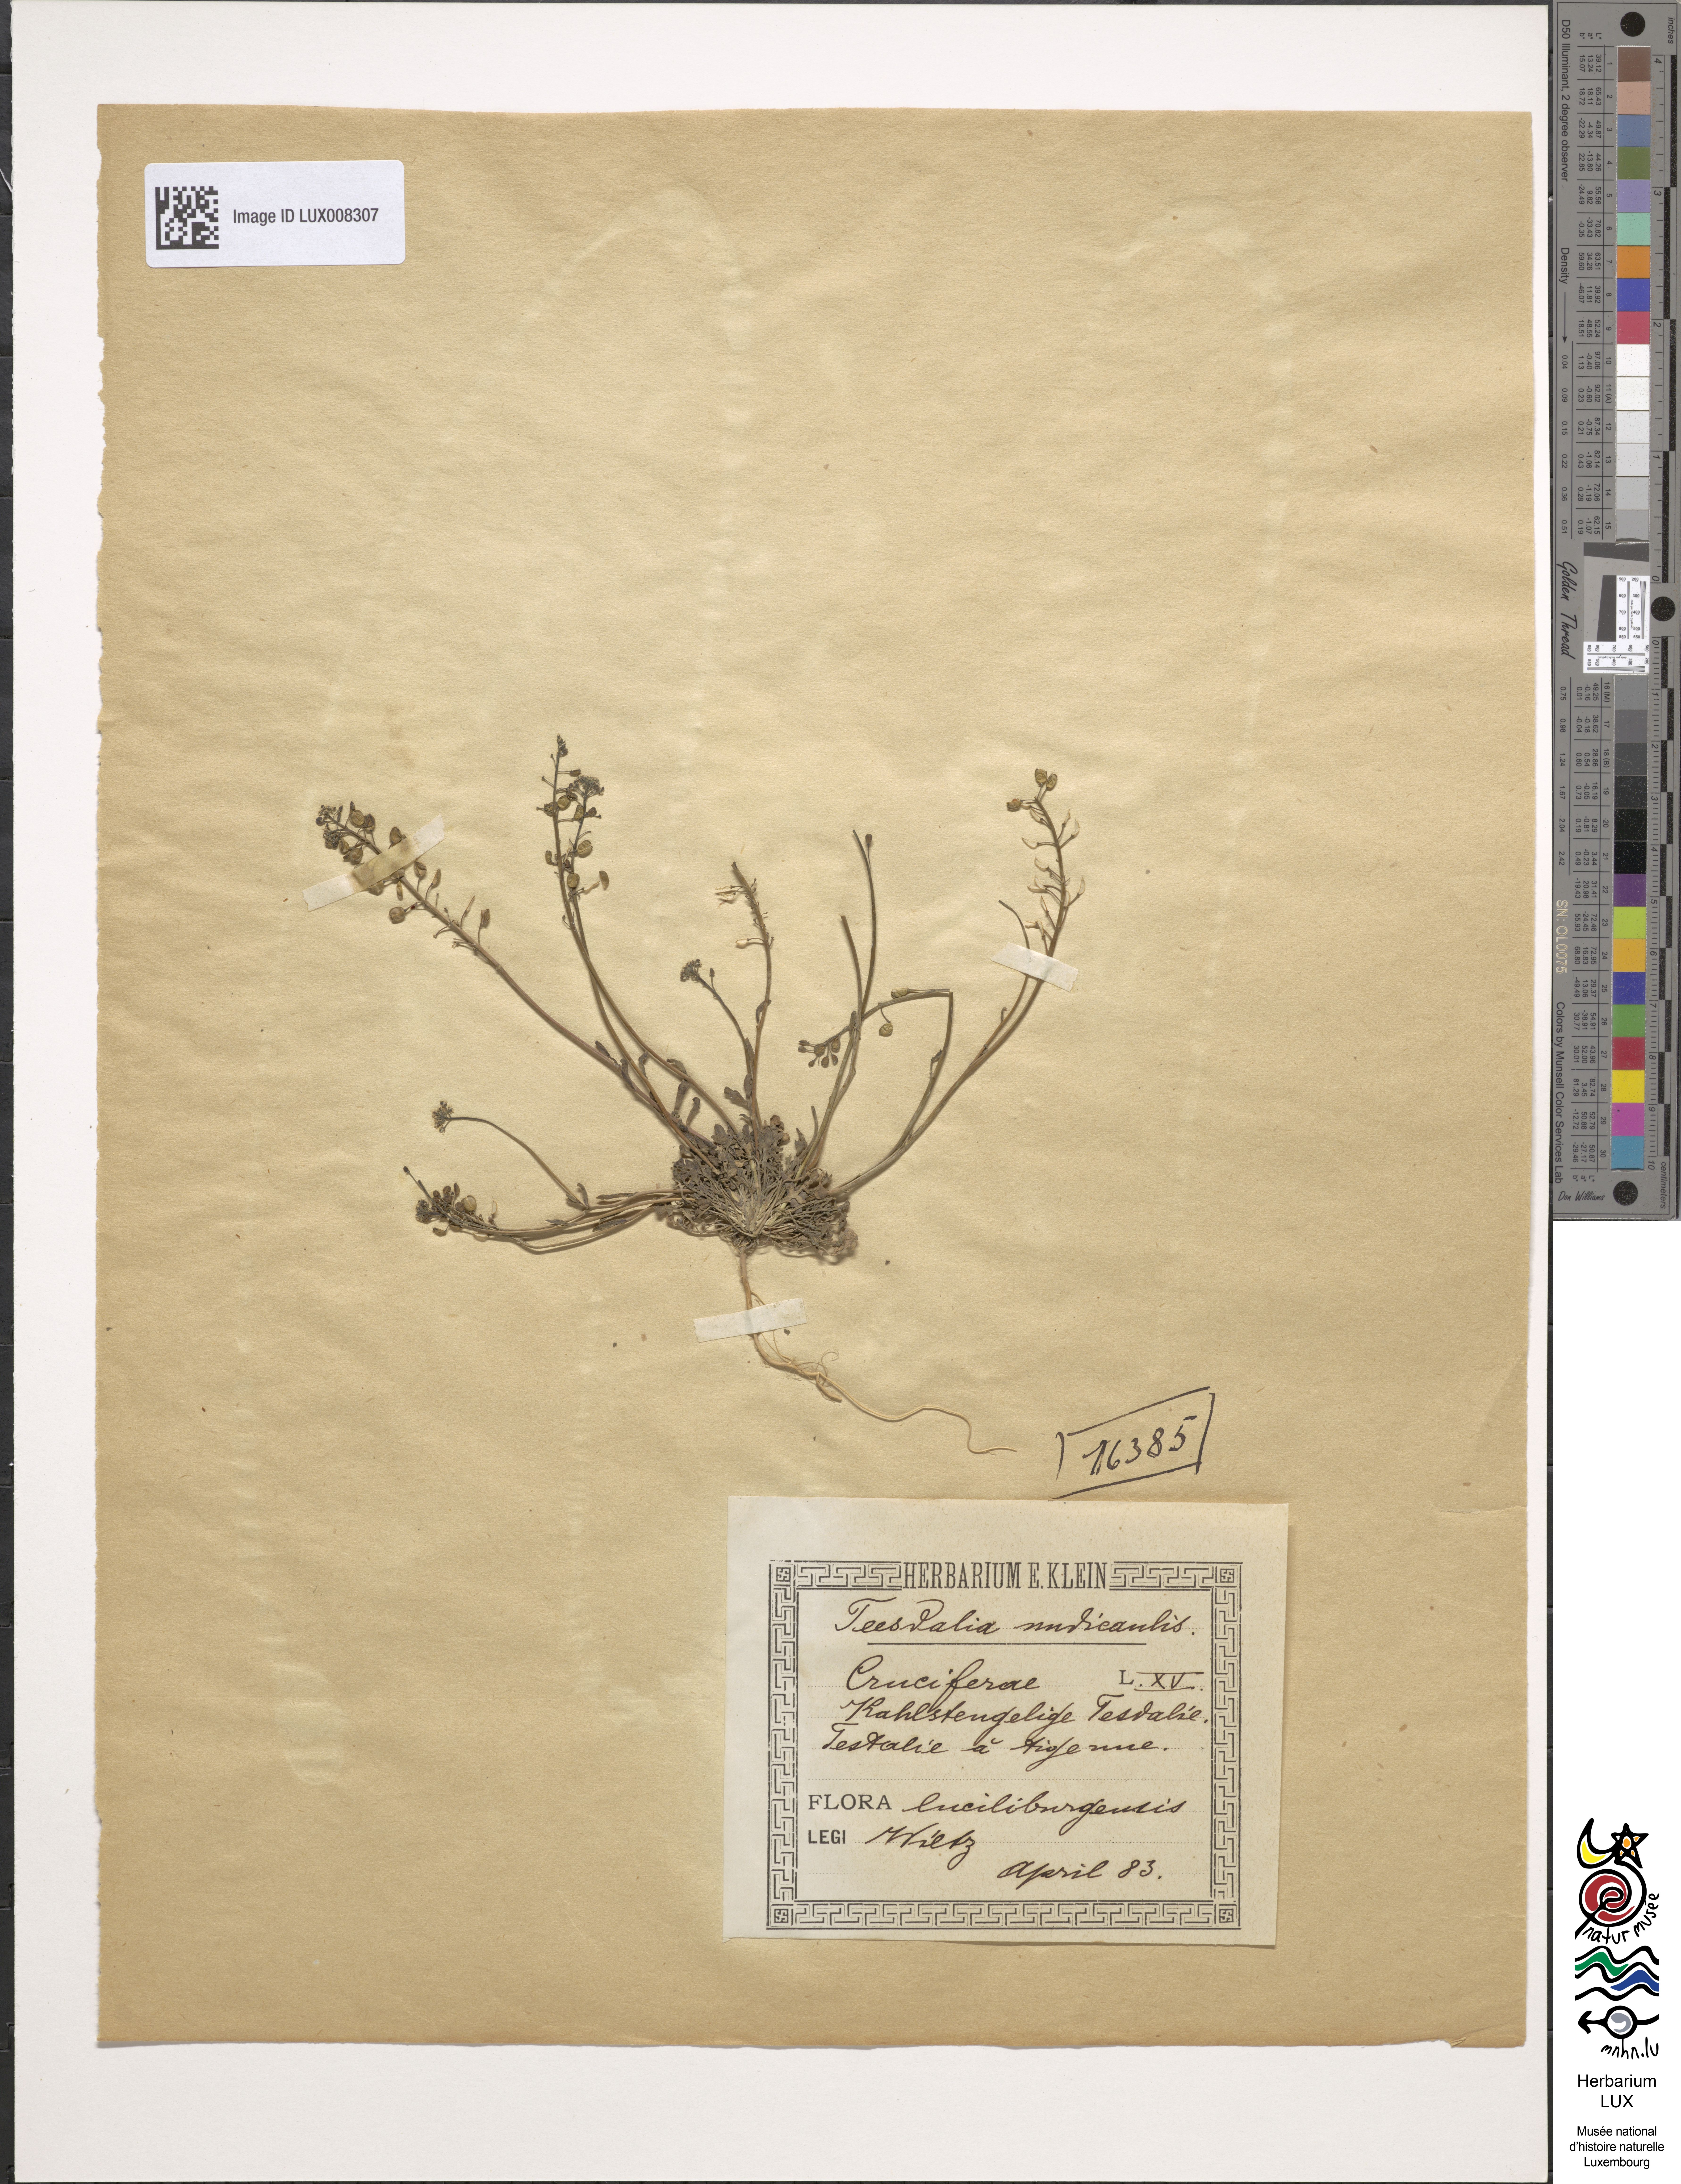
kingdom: Plantae
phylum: Tracheophyta
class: Magnoliopsida
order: Brassicales
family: Brassicaceae
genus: Teesdalia
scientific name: Teesdalia nudicaulis
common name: Shepherd's cress
